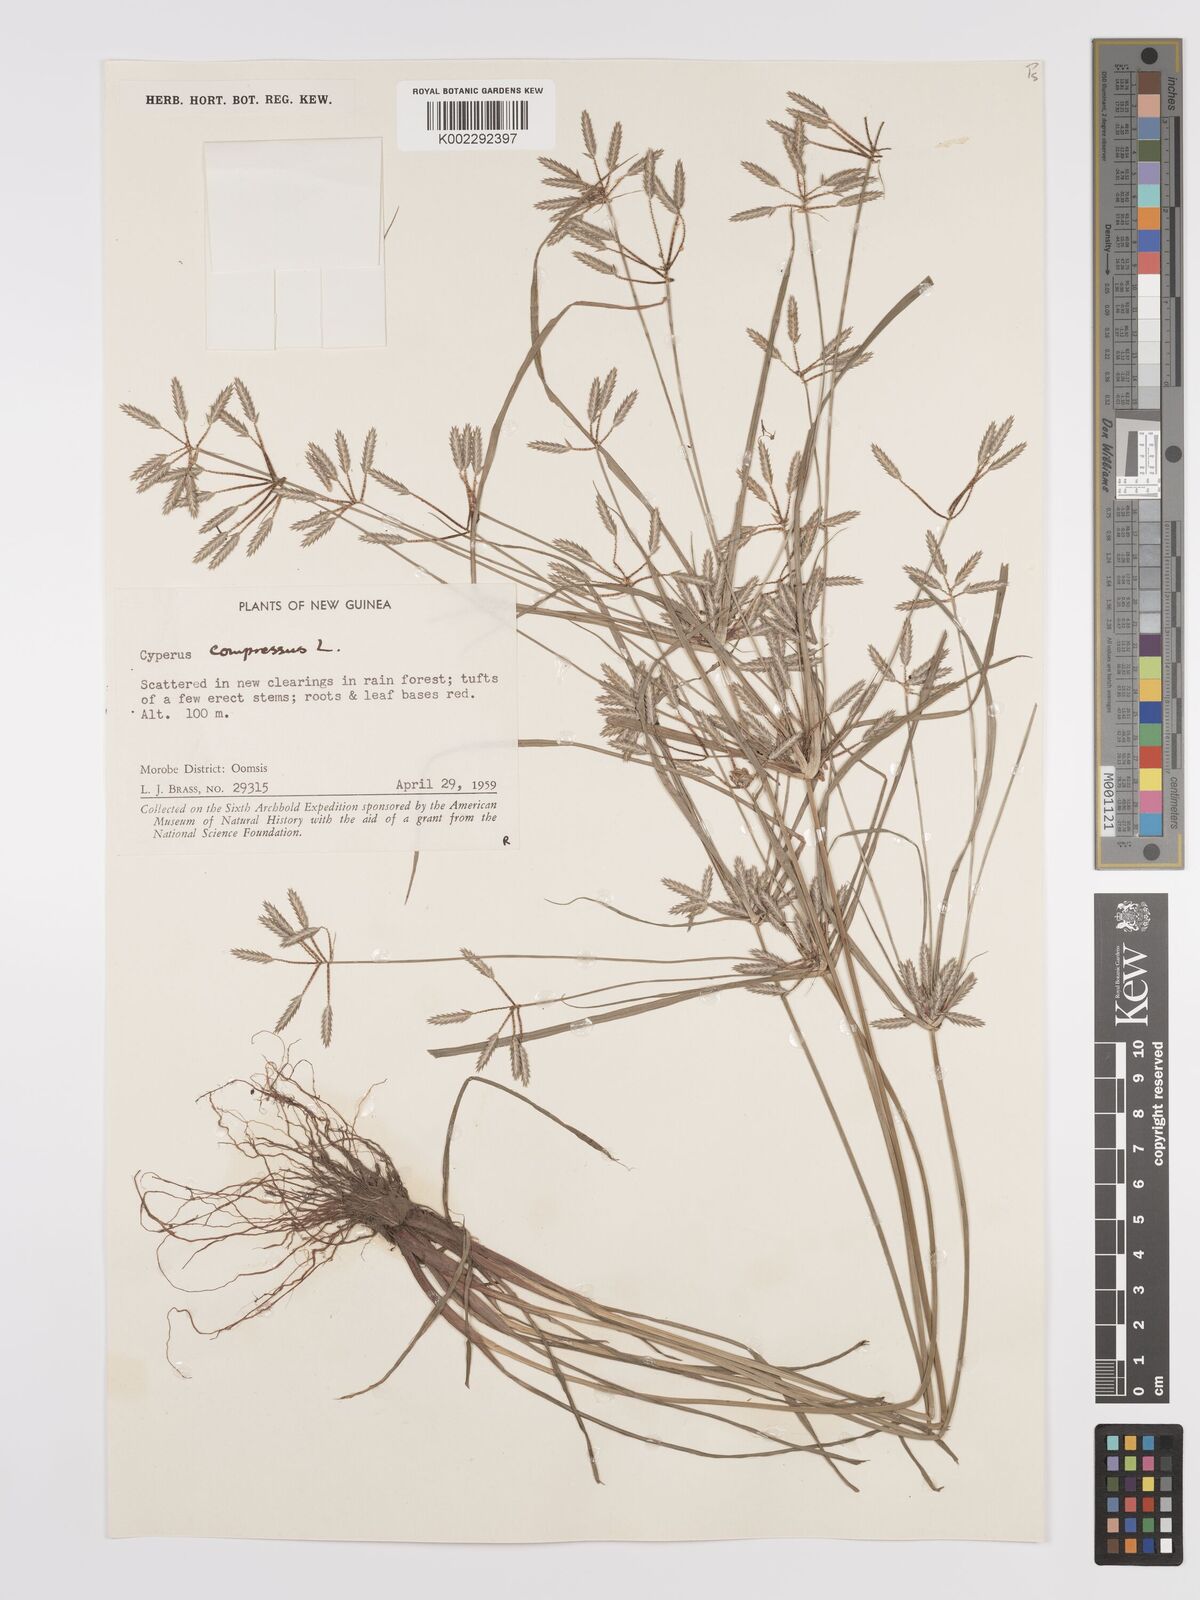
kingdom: Plantae
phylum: Tracheophyta
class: Liliopsida
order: Poales
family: Cyperaceae
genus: Cyperus
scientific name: Cyperus compressus
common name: Poorland flatsedge
